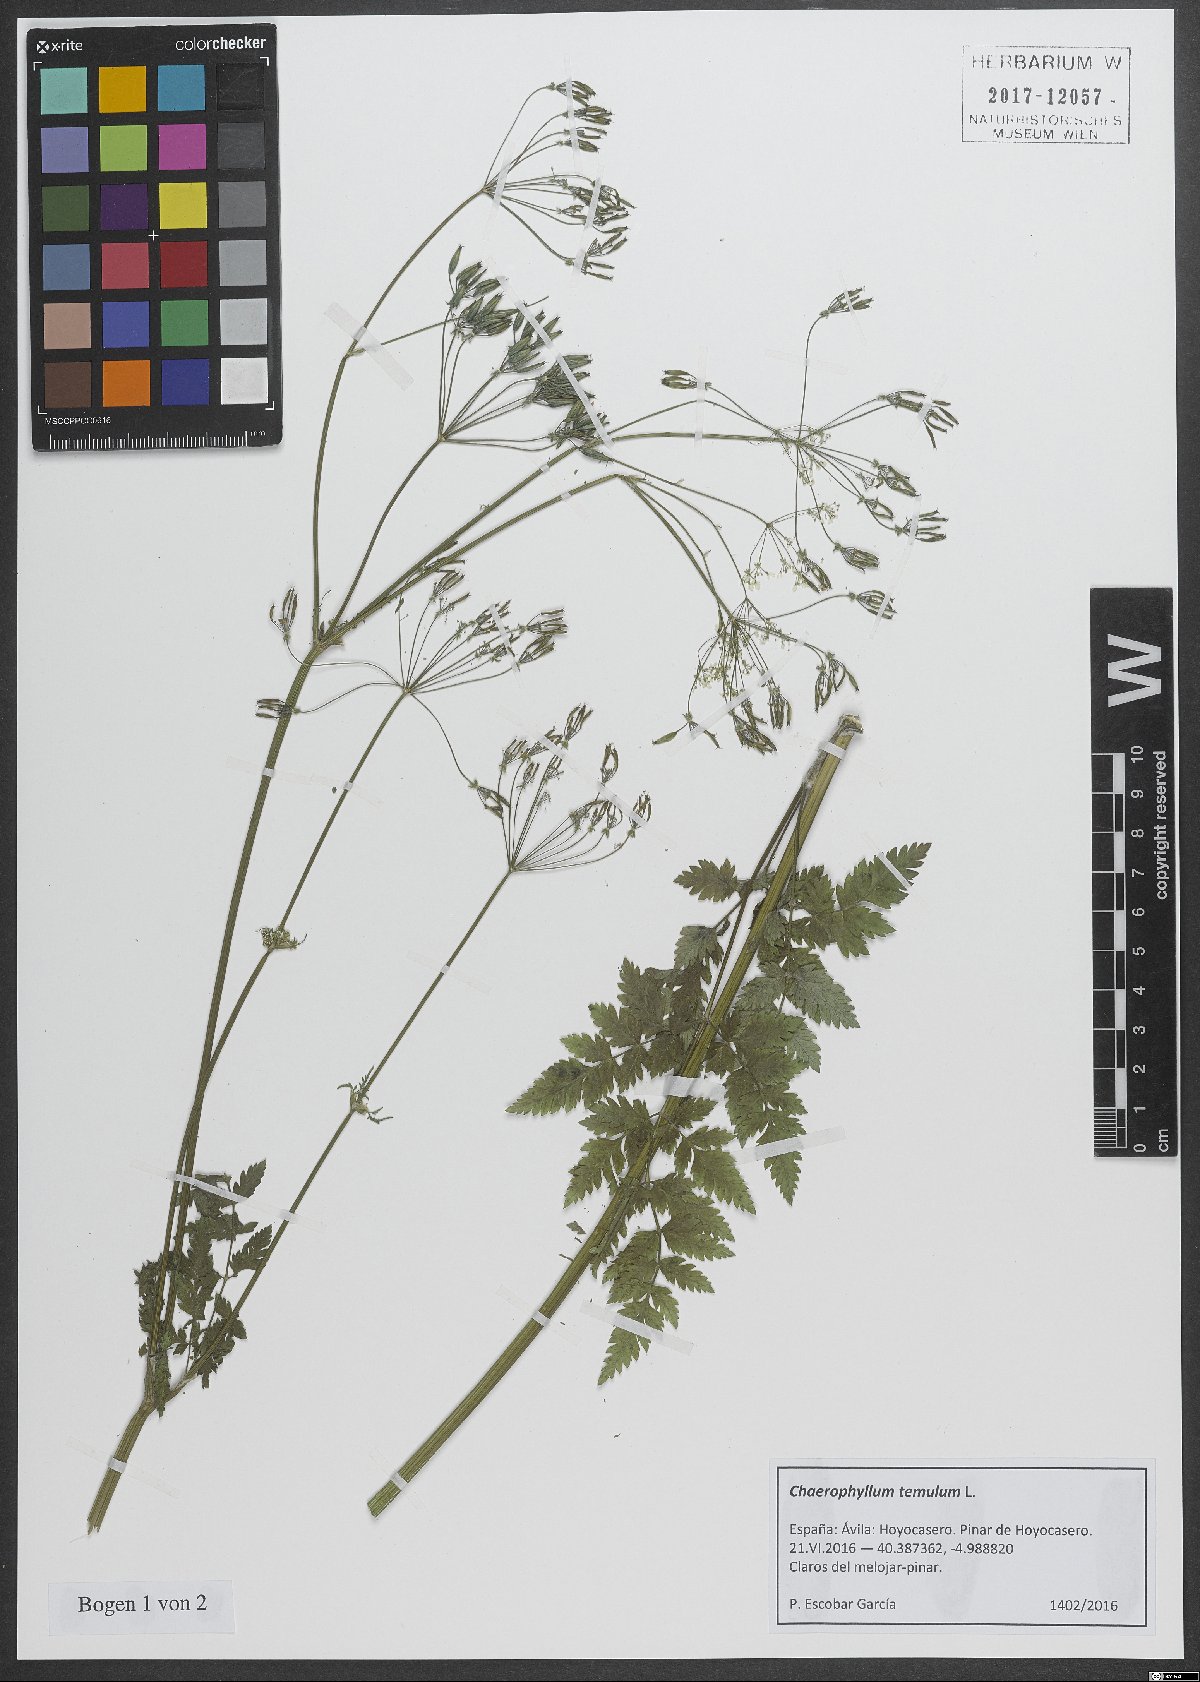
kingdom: Plantae
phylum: Tracheophyta
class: Magnoliopsida
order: Apiales
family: Apiaceae
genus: Chaerophyllum
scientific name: Chaerophyllum temulum
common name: Rough chervil
